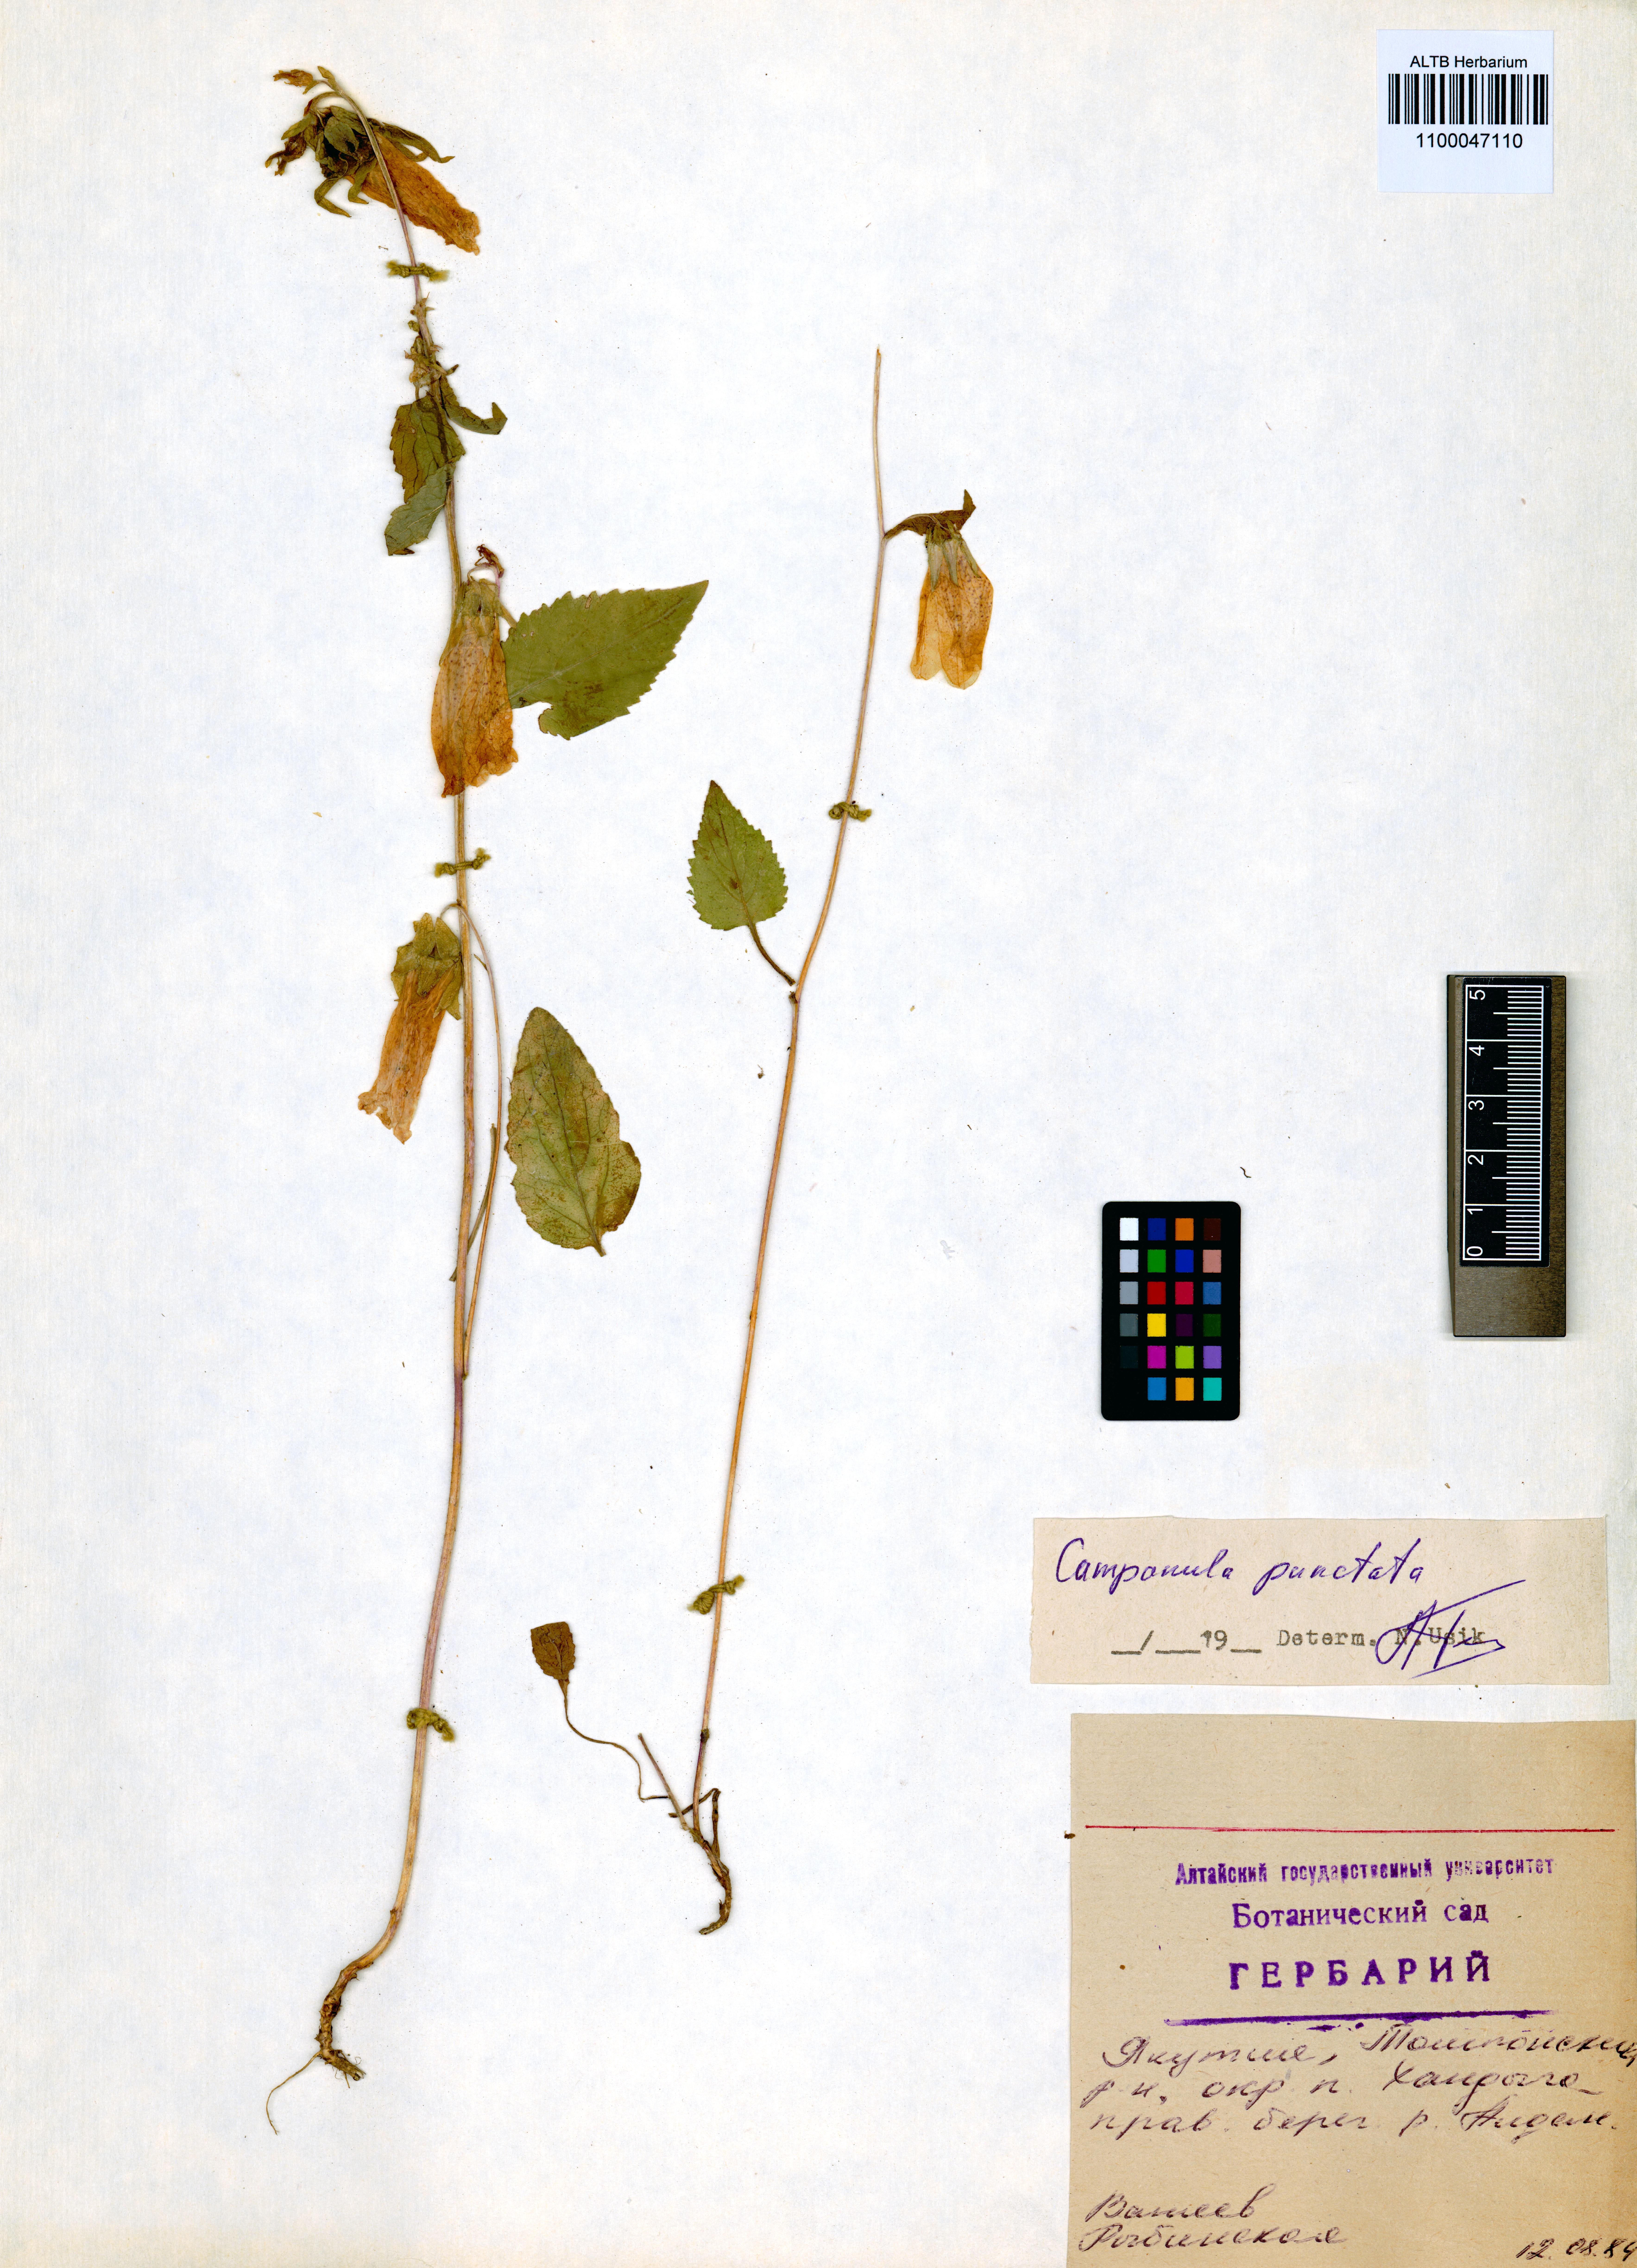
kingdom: Plantae
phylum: Tracheophyta
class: Magnoliopsida
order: Asterales
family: Campanulaceae
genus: Campanula
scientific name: Campanula punctata
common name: Spotted bellflower
